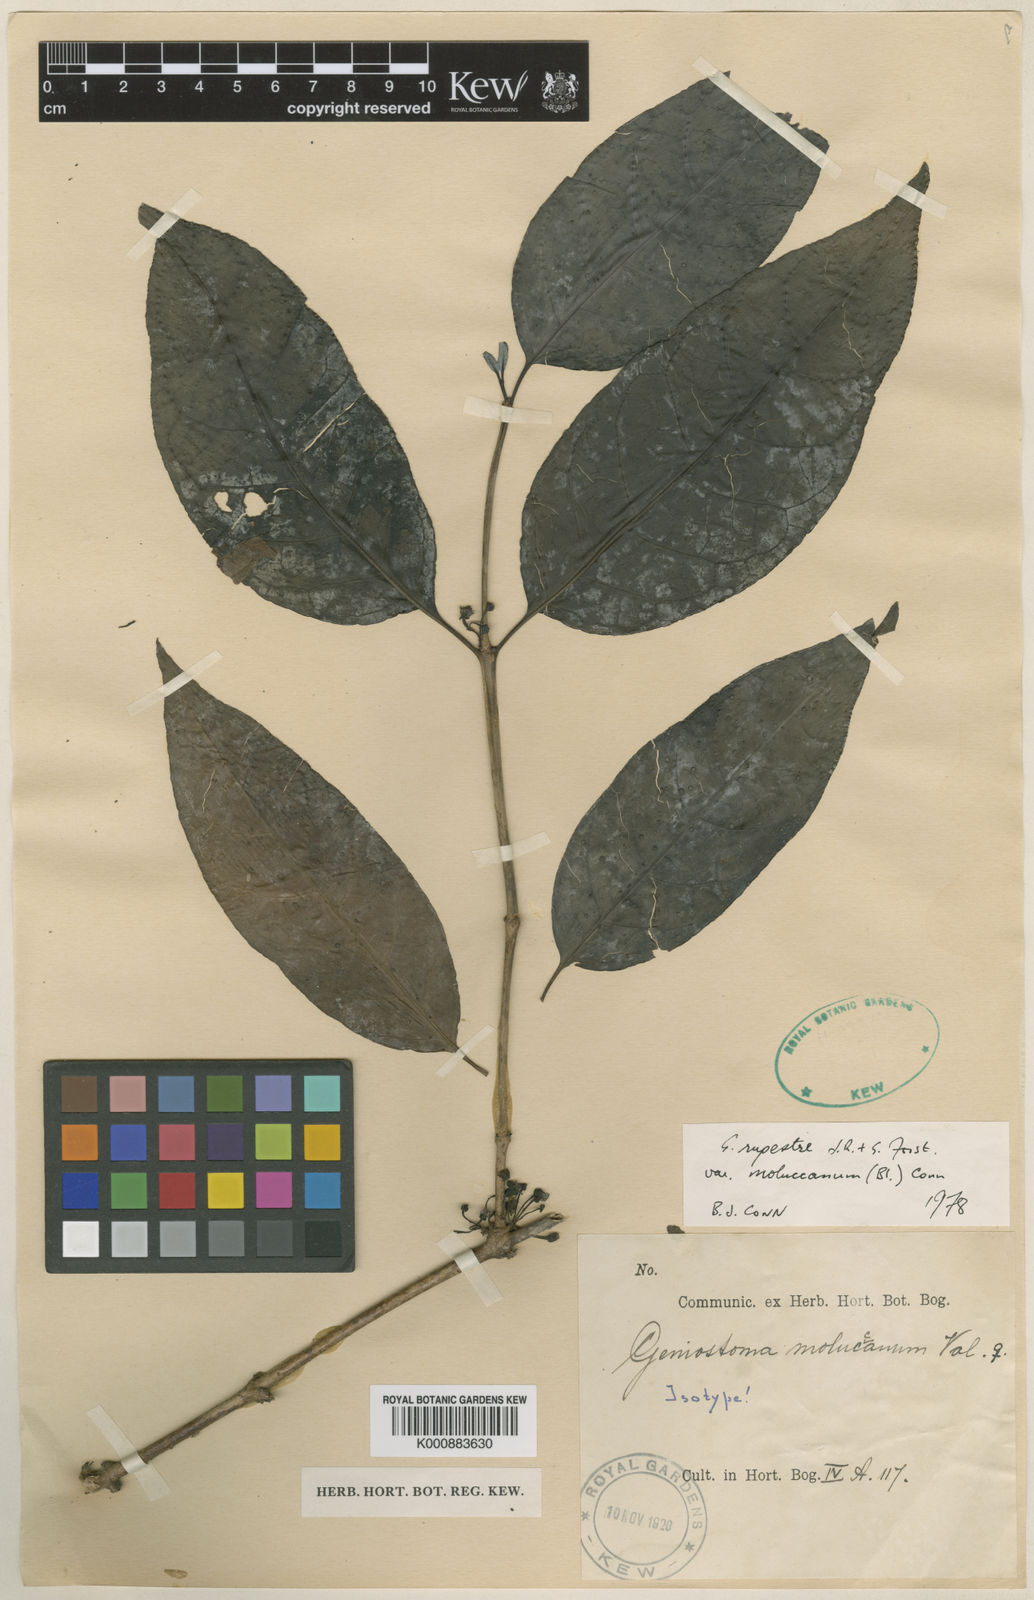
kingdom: Plantae
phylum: Tracheophyta
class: Magnoliopsida
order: Gentianales
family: Loganiaceae
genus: Geniostoma
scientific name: Geniostoma rupestre
